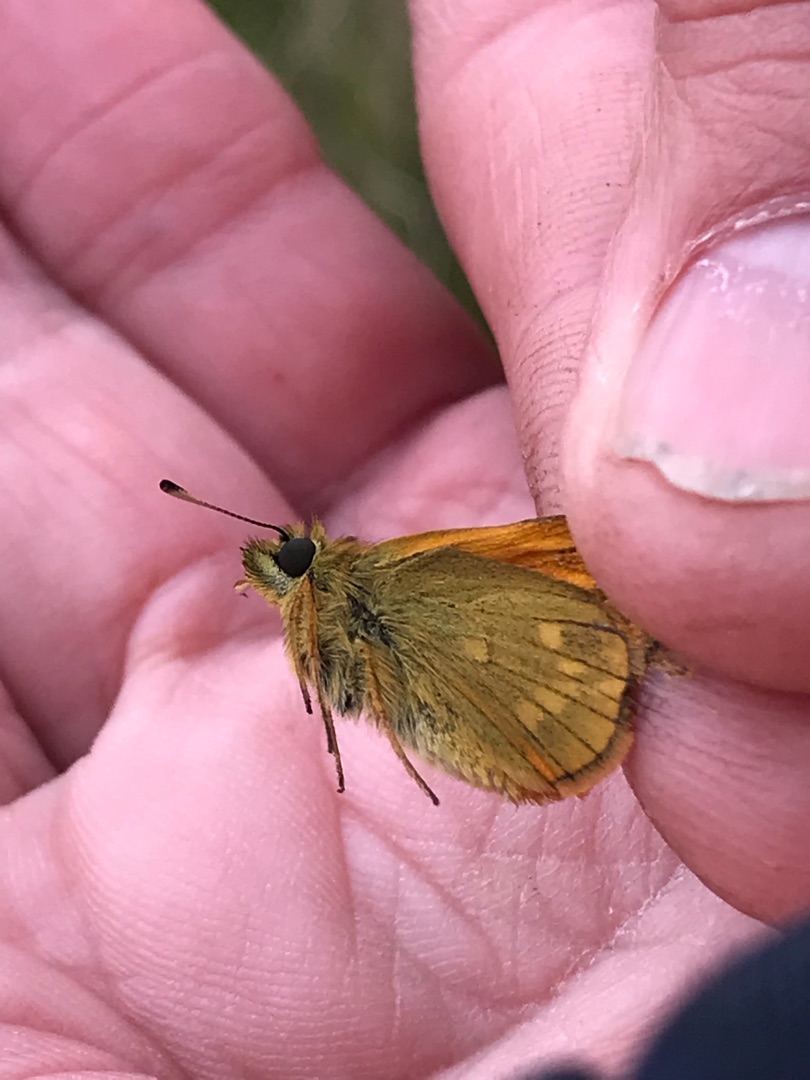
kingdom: Animalia
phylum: Arthropoda
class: Insecta
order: Lepidoptera
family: Hesperiidae
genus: Ochlodes
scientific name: Ochlodes venata
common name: Stor bredpande
